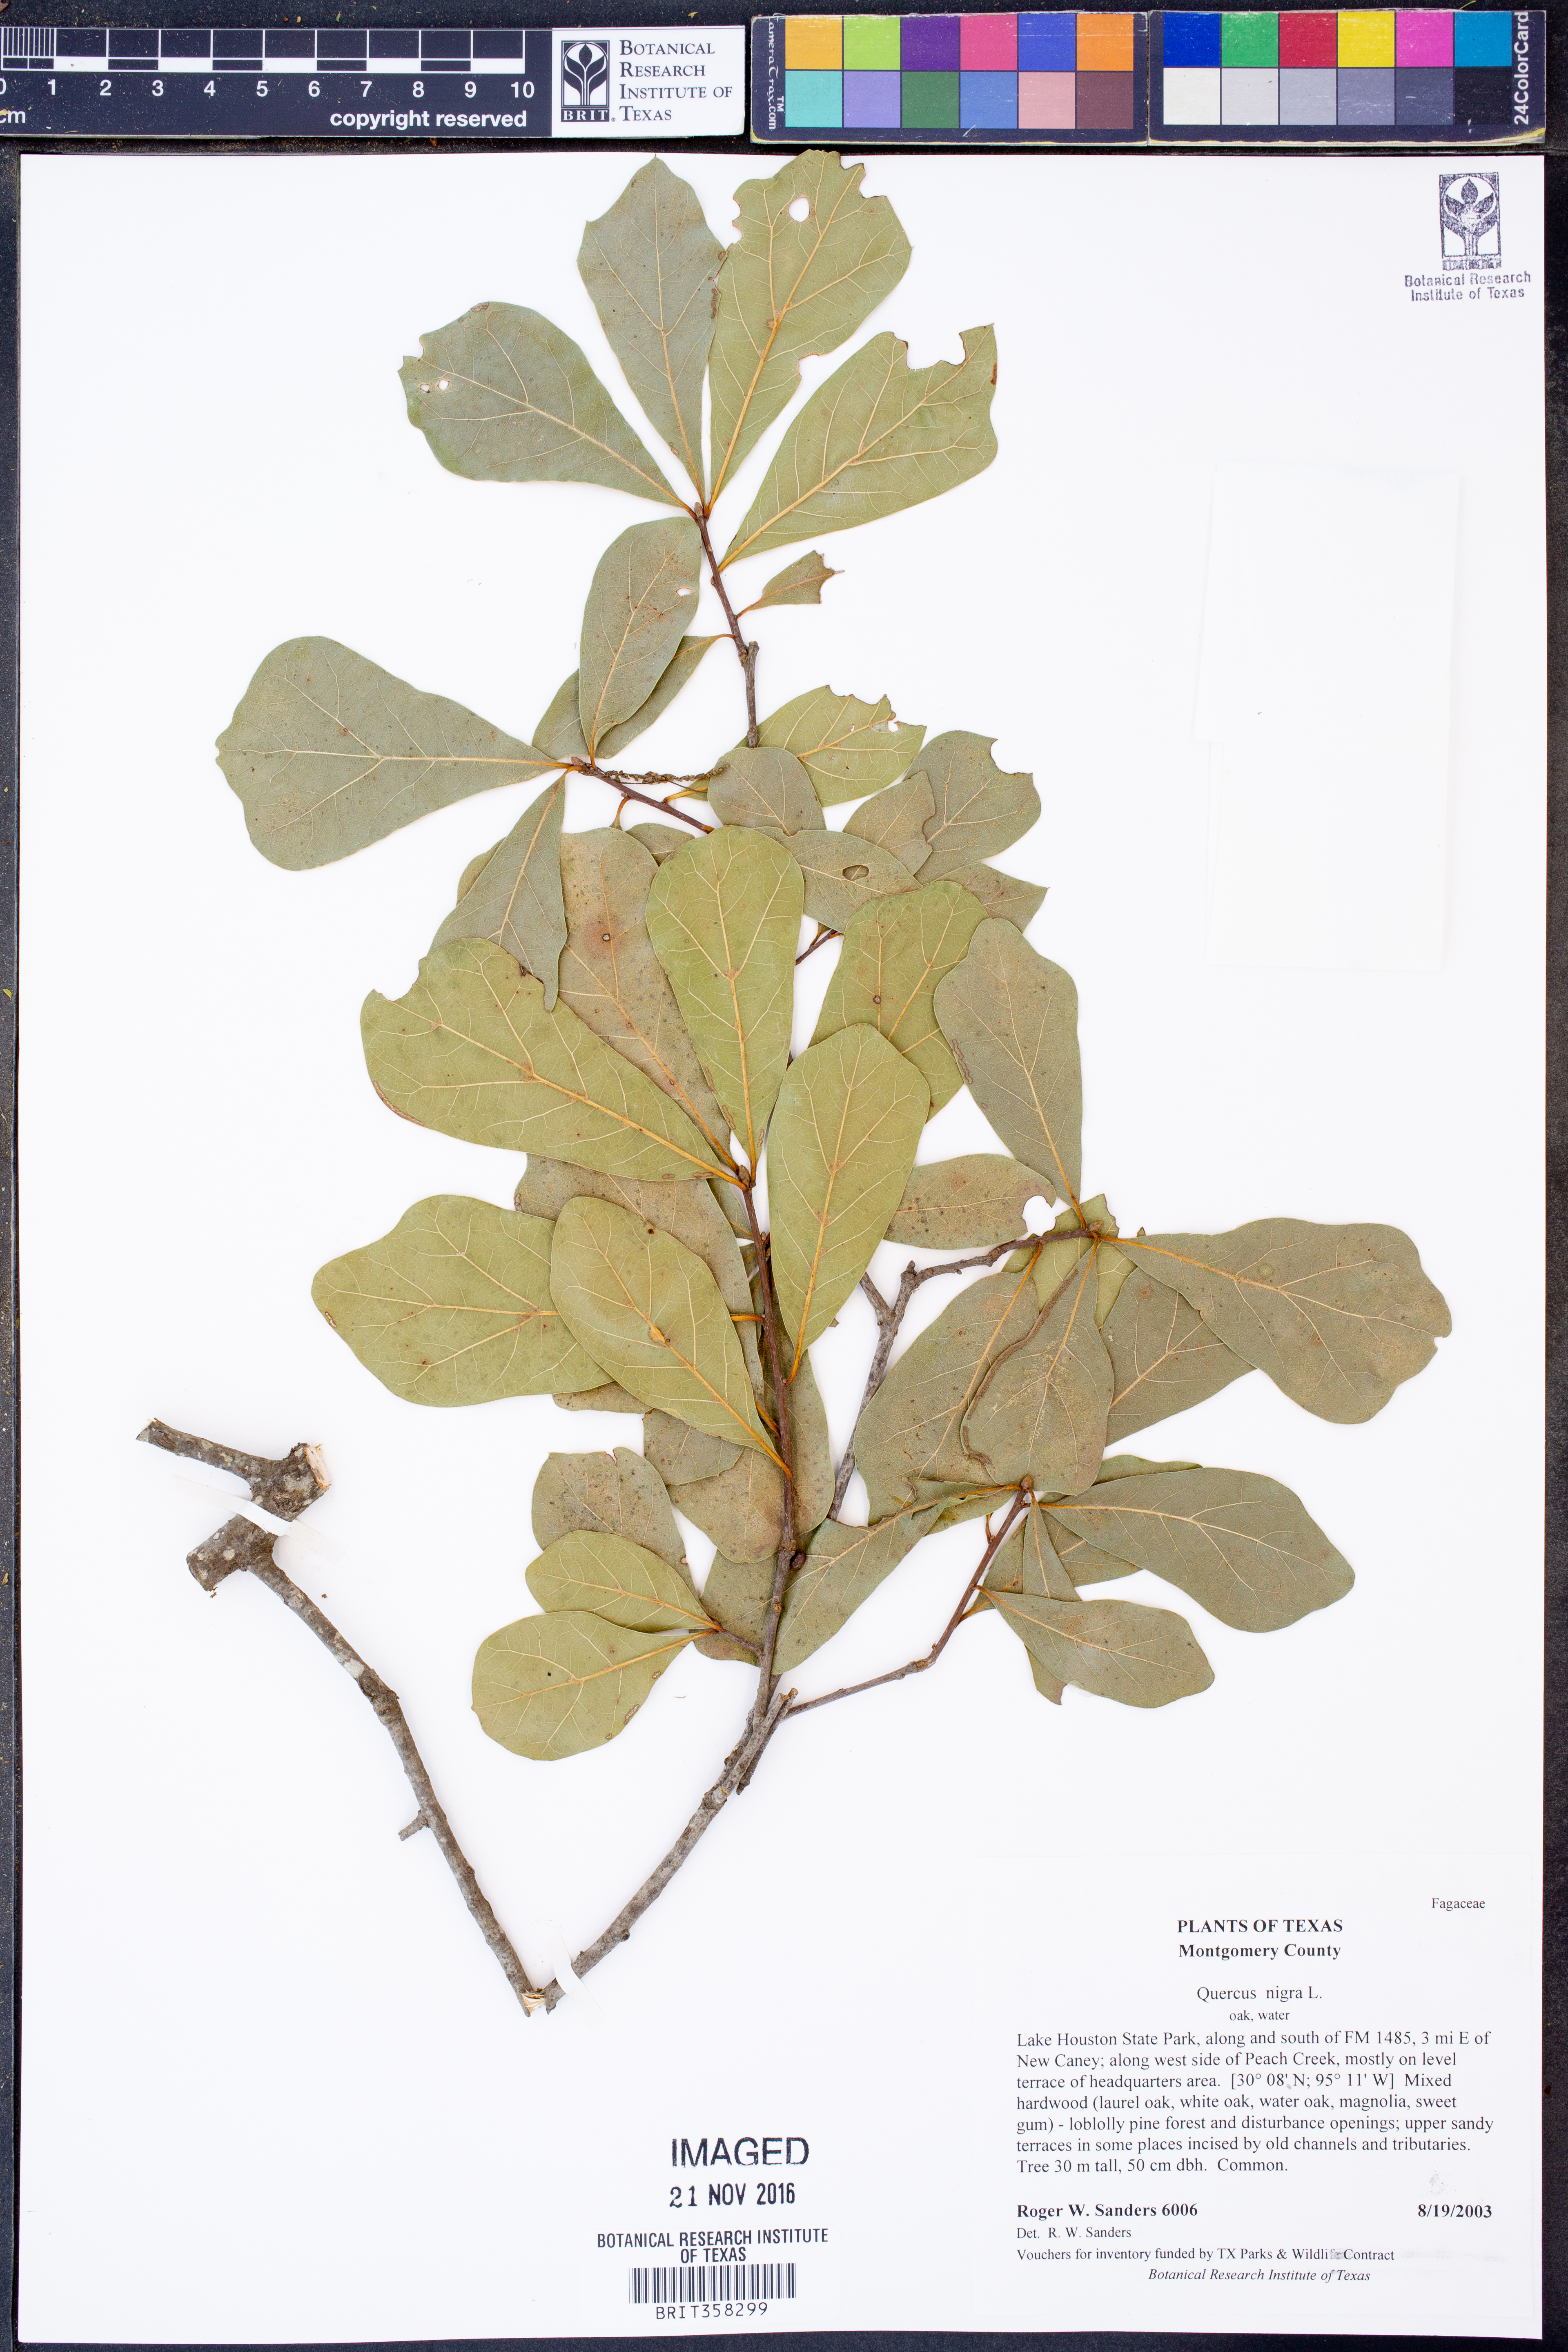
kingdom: Plantae
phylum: Tracheophyta
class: Magnoliopsida
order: Fagales
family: Fagaceae
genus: Quercus
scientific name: Quercus nigra
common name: Water oak
